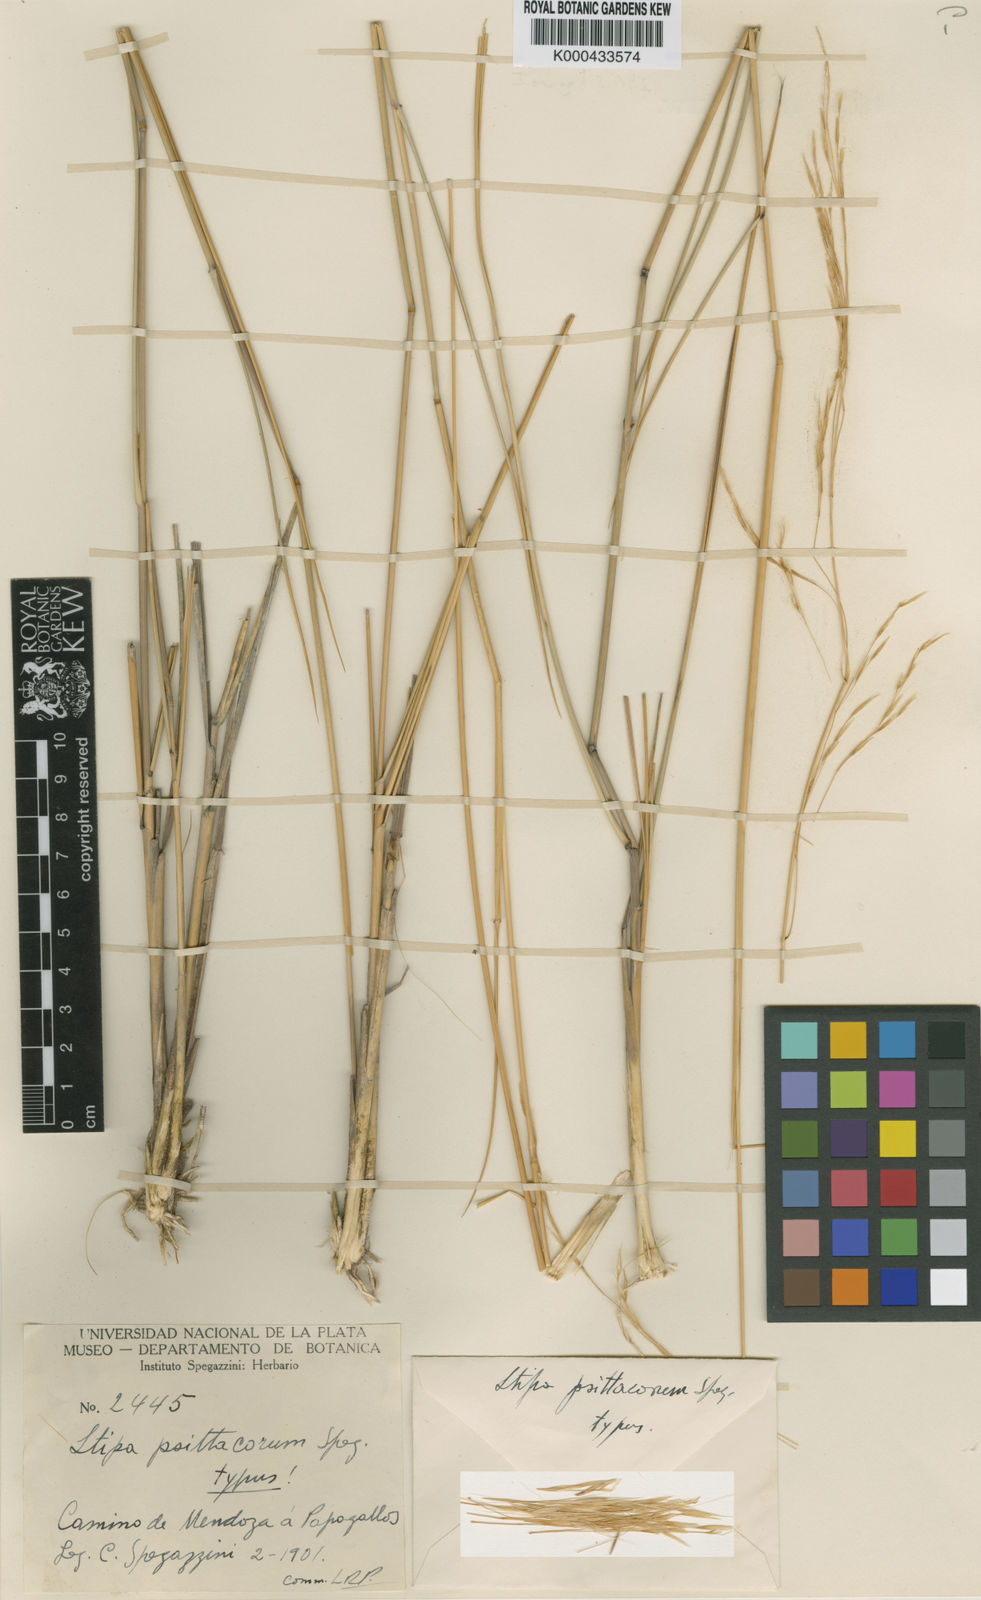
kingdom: Plantae
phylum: Tracheophyta
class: Liliopsida
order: Poales
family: Poaceae
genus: Nassella
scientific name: Nassella psittacorum
